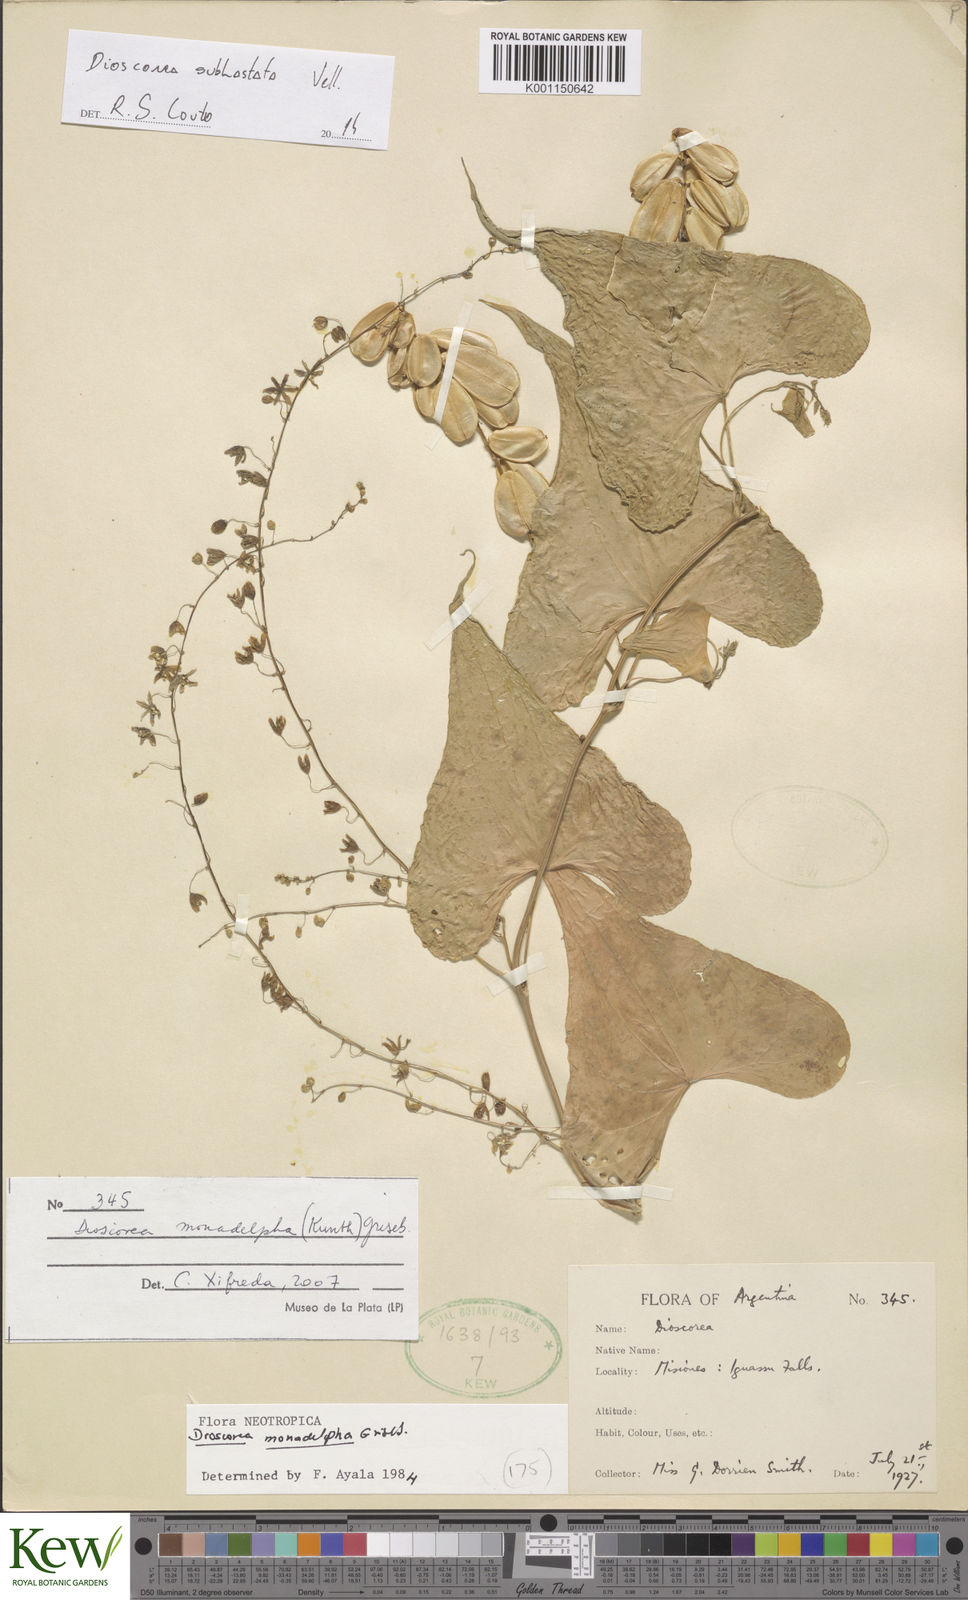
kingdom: Plantae
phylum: Tracheophyta
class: Liliopsida
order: Dioscoreales
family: Dioscoreaceae
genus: Dioscorea
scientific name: Dioscorea subhastata
